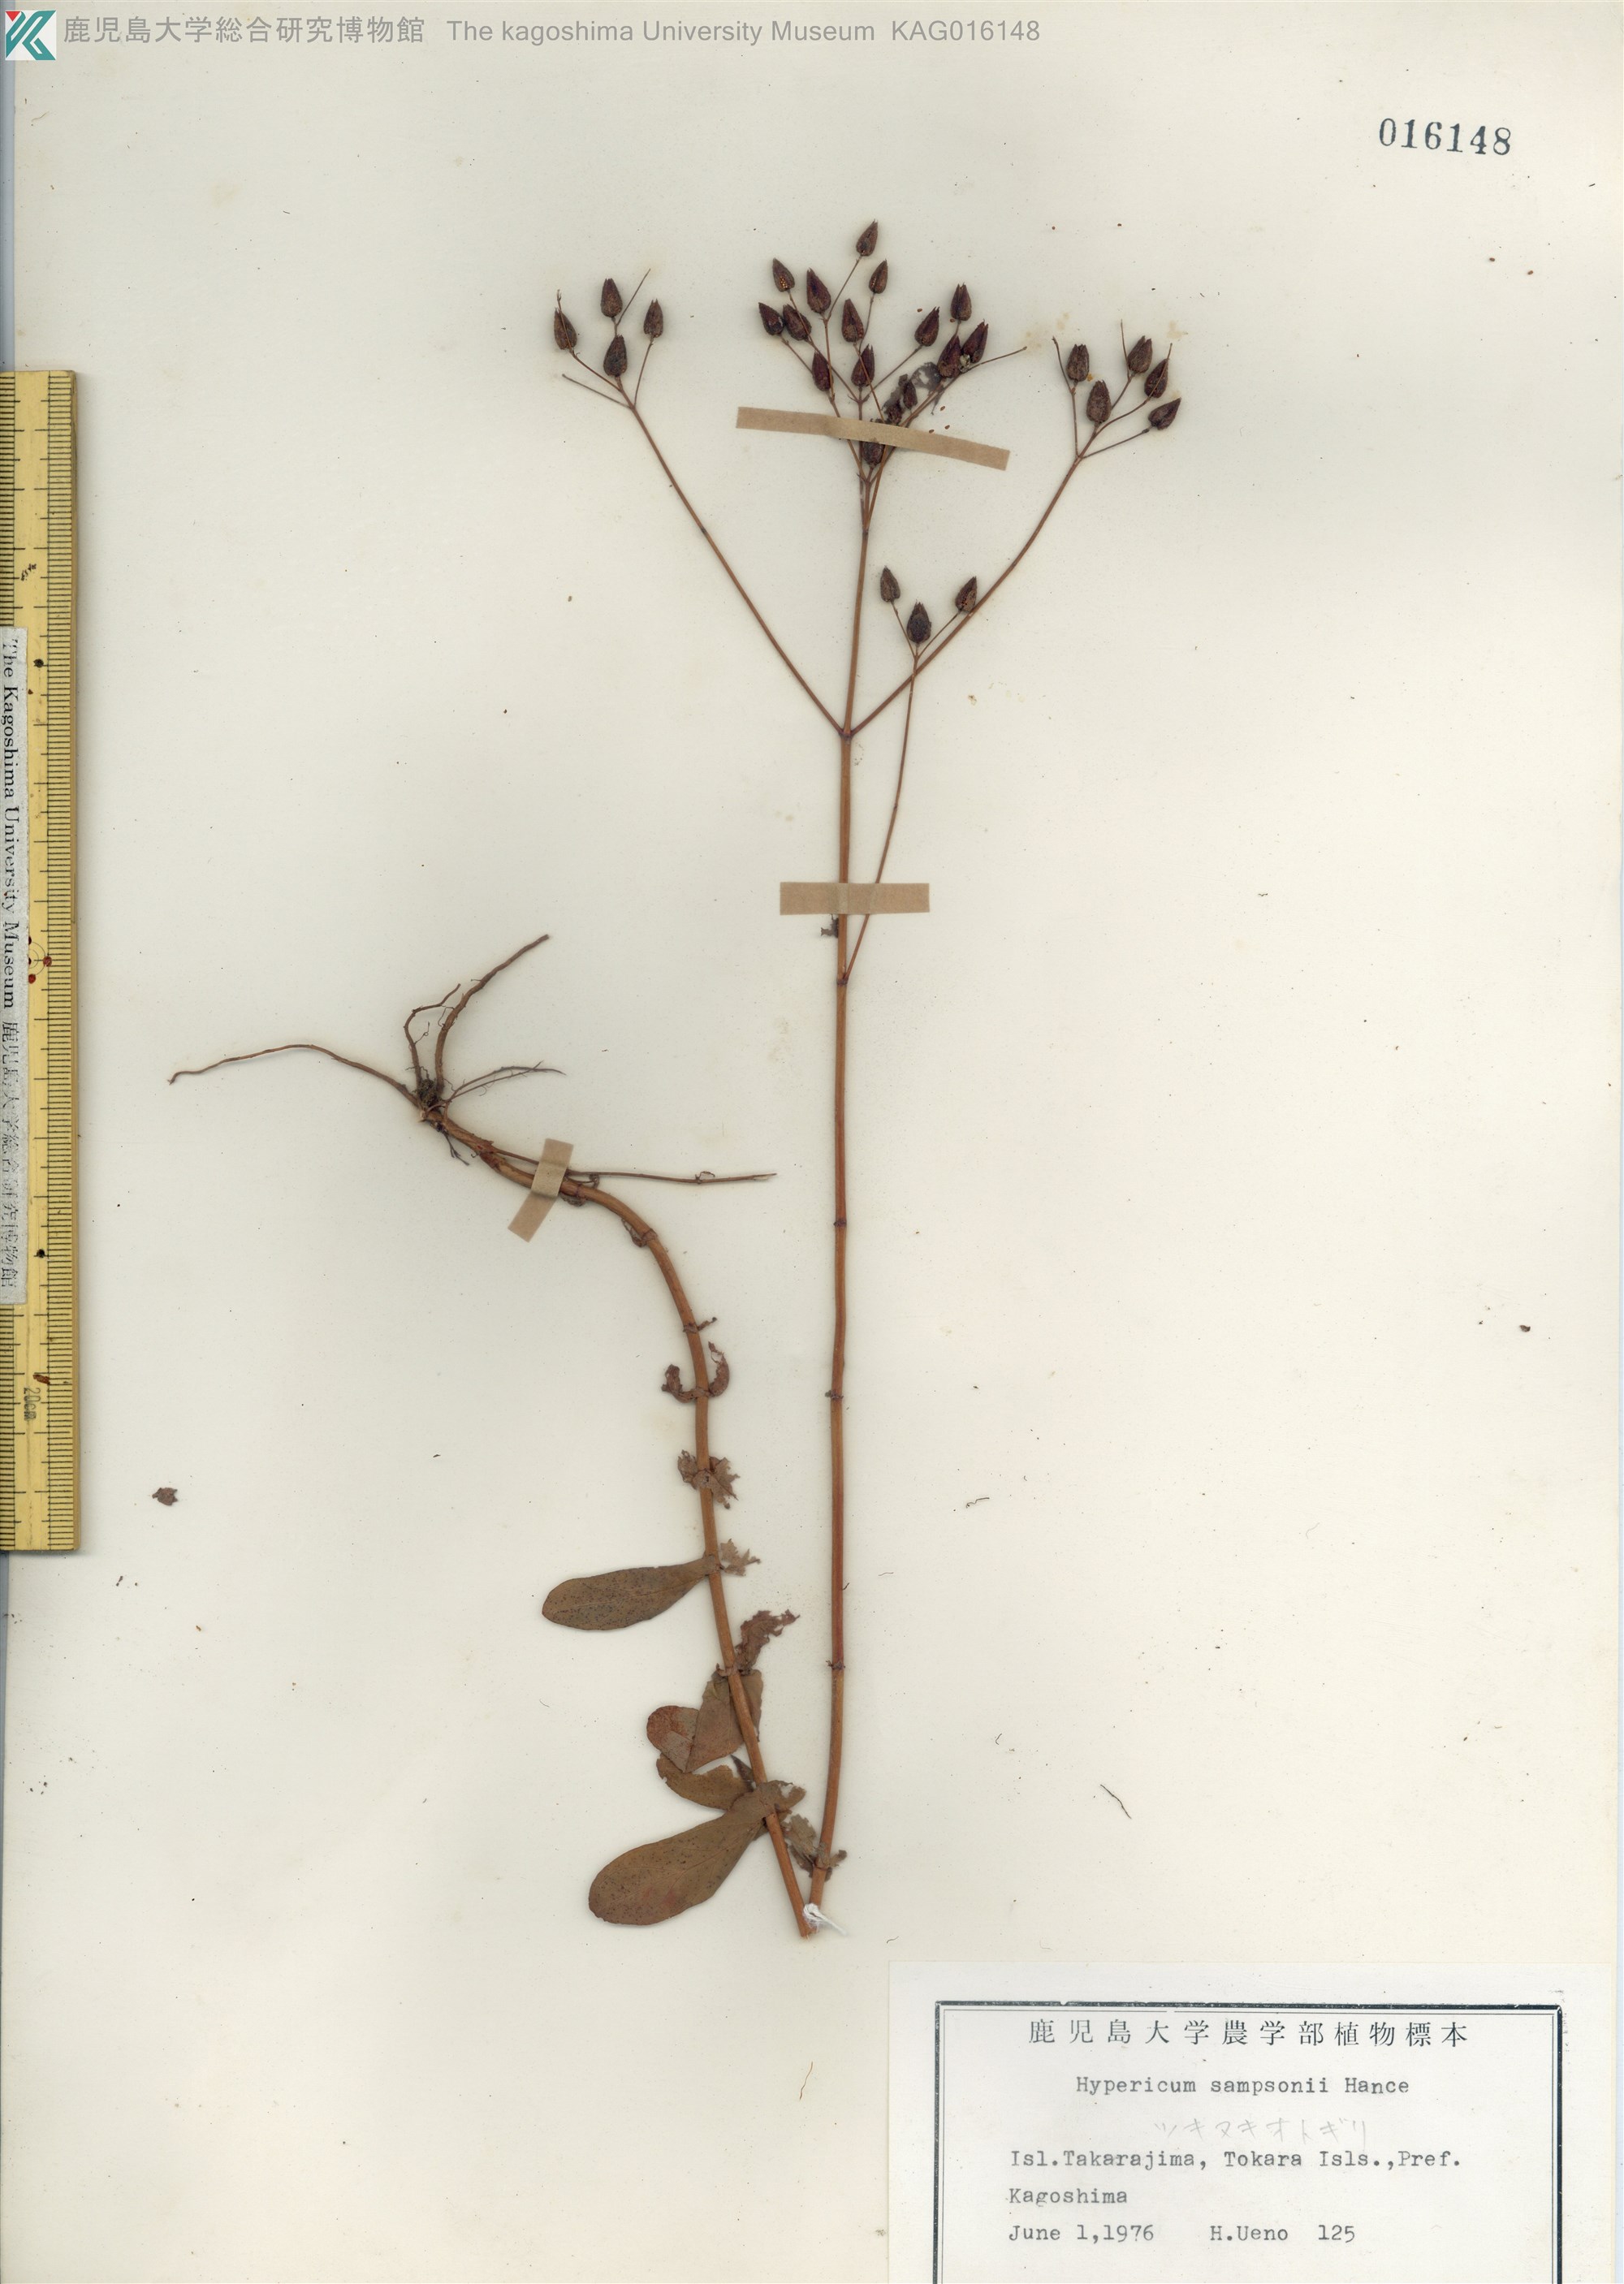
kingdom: Plantae
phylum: Tracheophyta
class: Magnoliopsida
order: Malpighiales
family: Hypericaceae
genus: Hypericum
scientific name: Hypericum sampsonii
